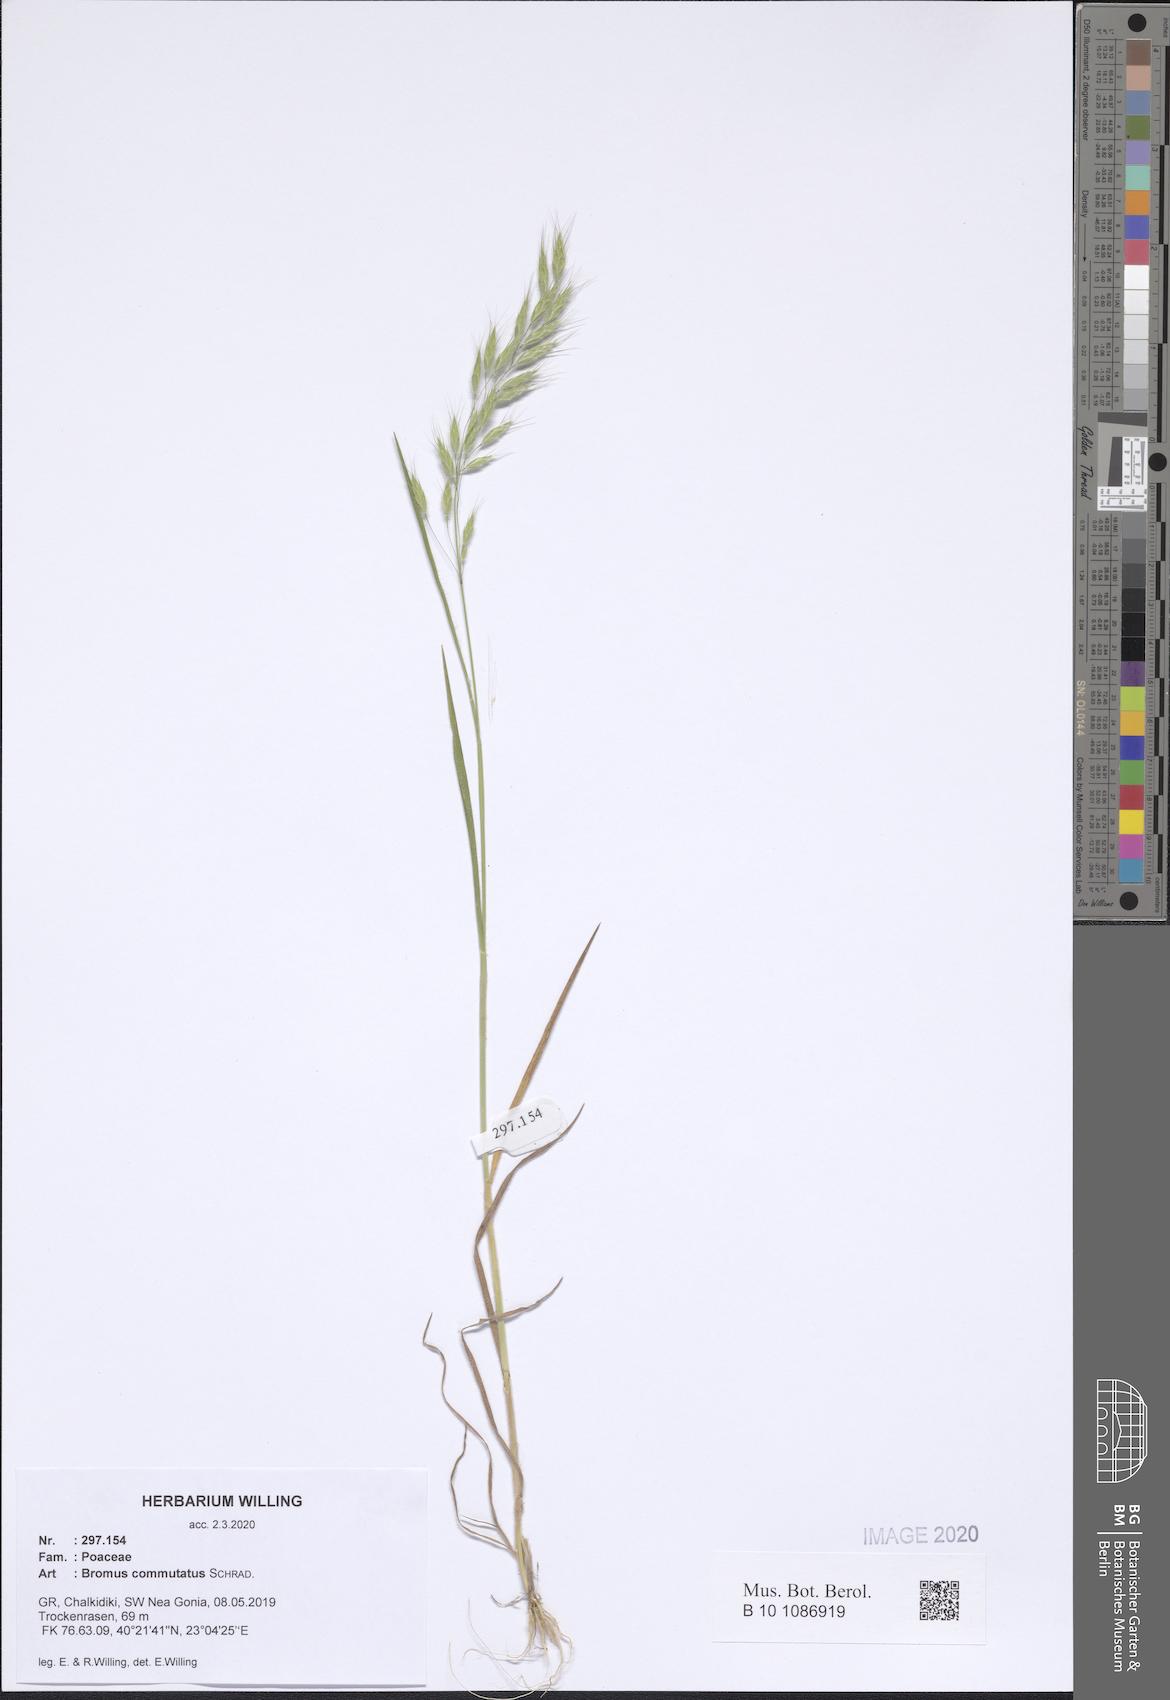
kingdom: Plantae
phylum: Tracheophyta
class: Liliopsida
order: Poales
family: Poaceae
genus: Bromus
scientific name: Bromus commutatus
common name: Meadow brome
